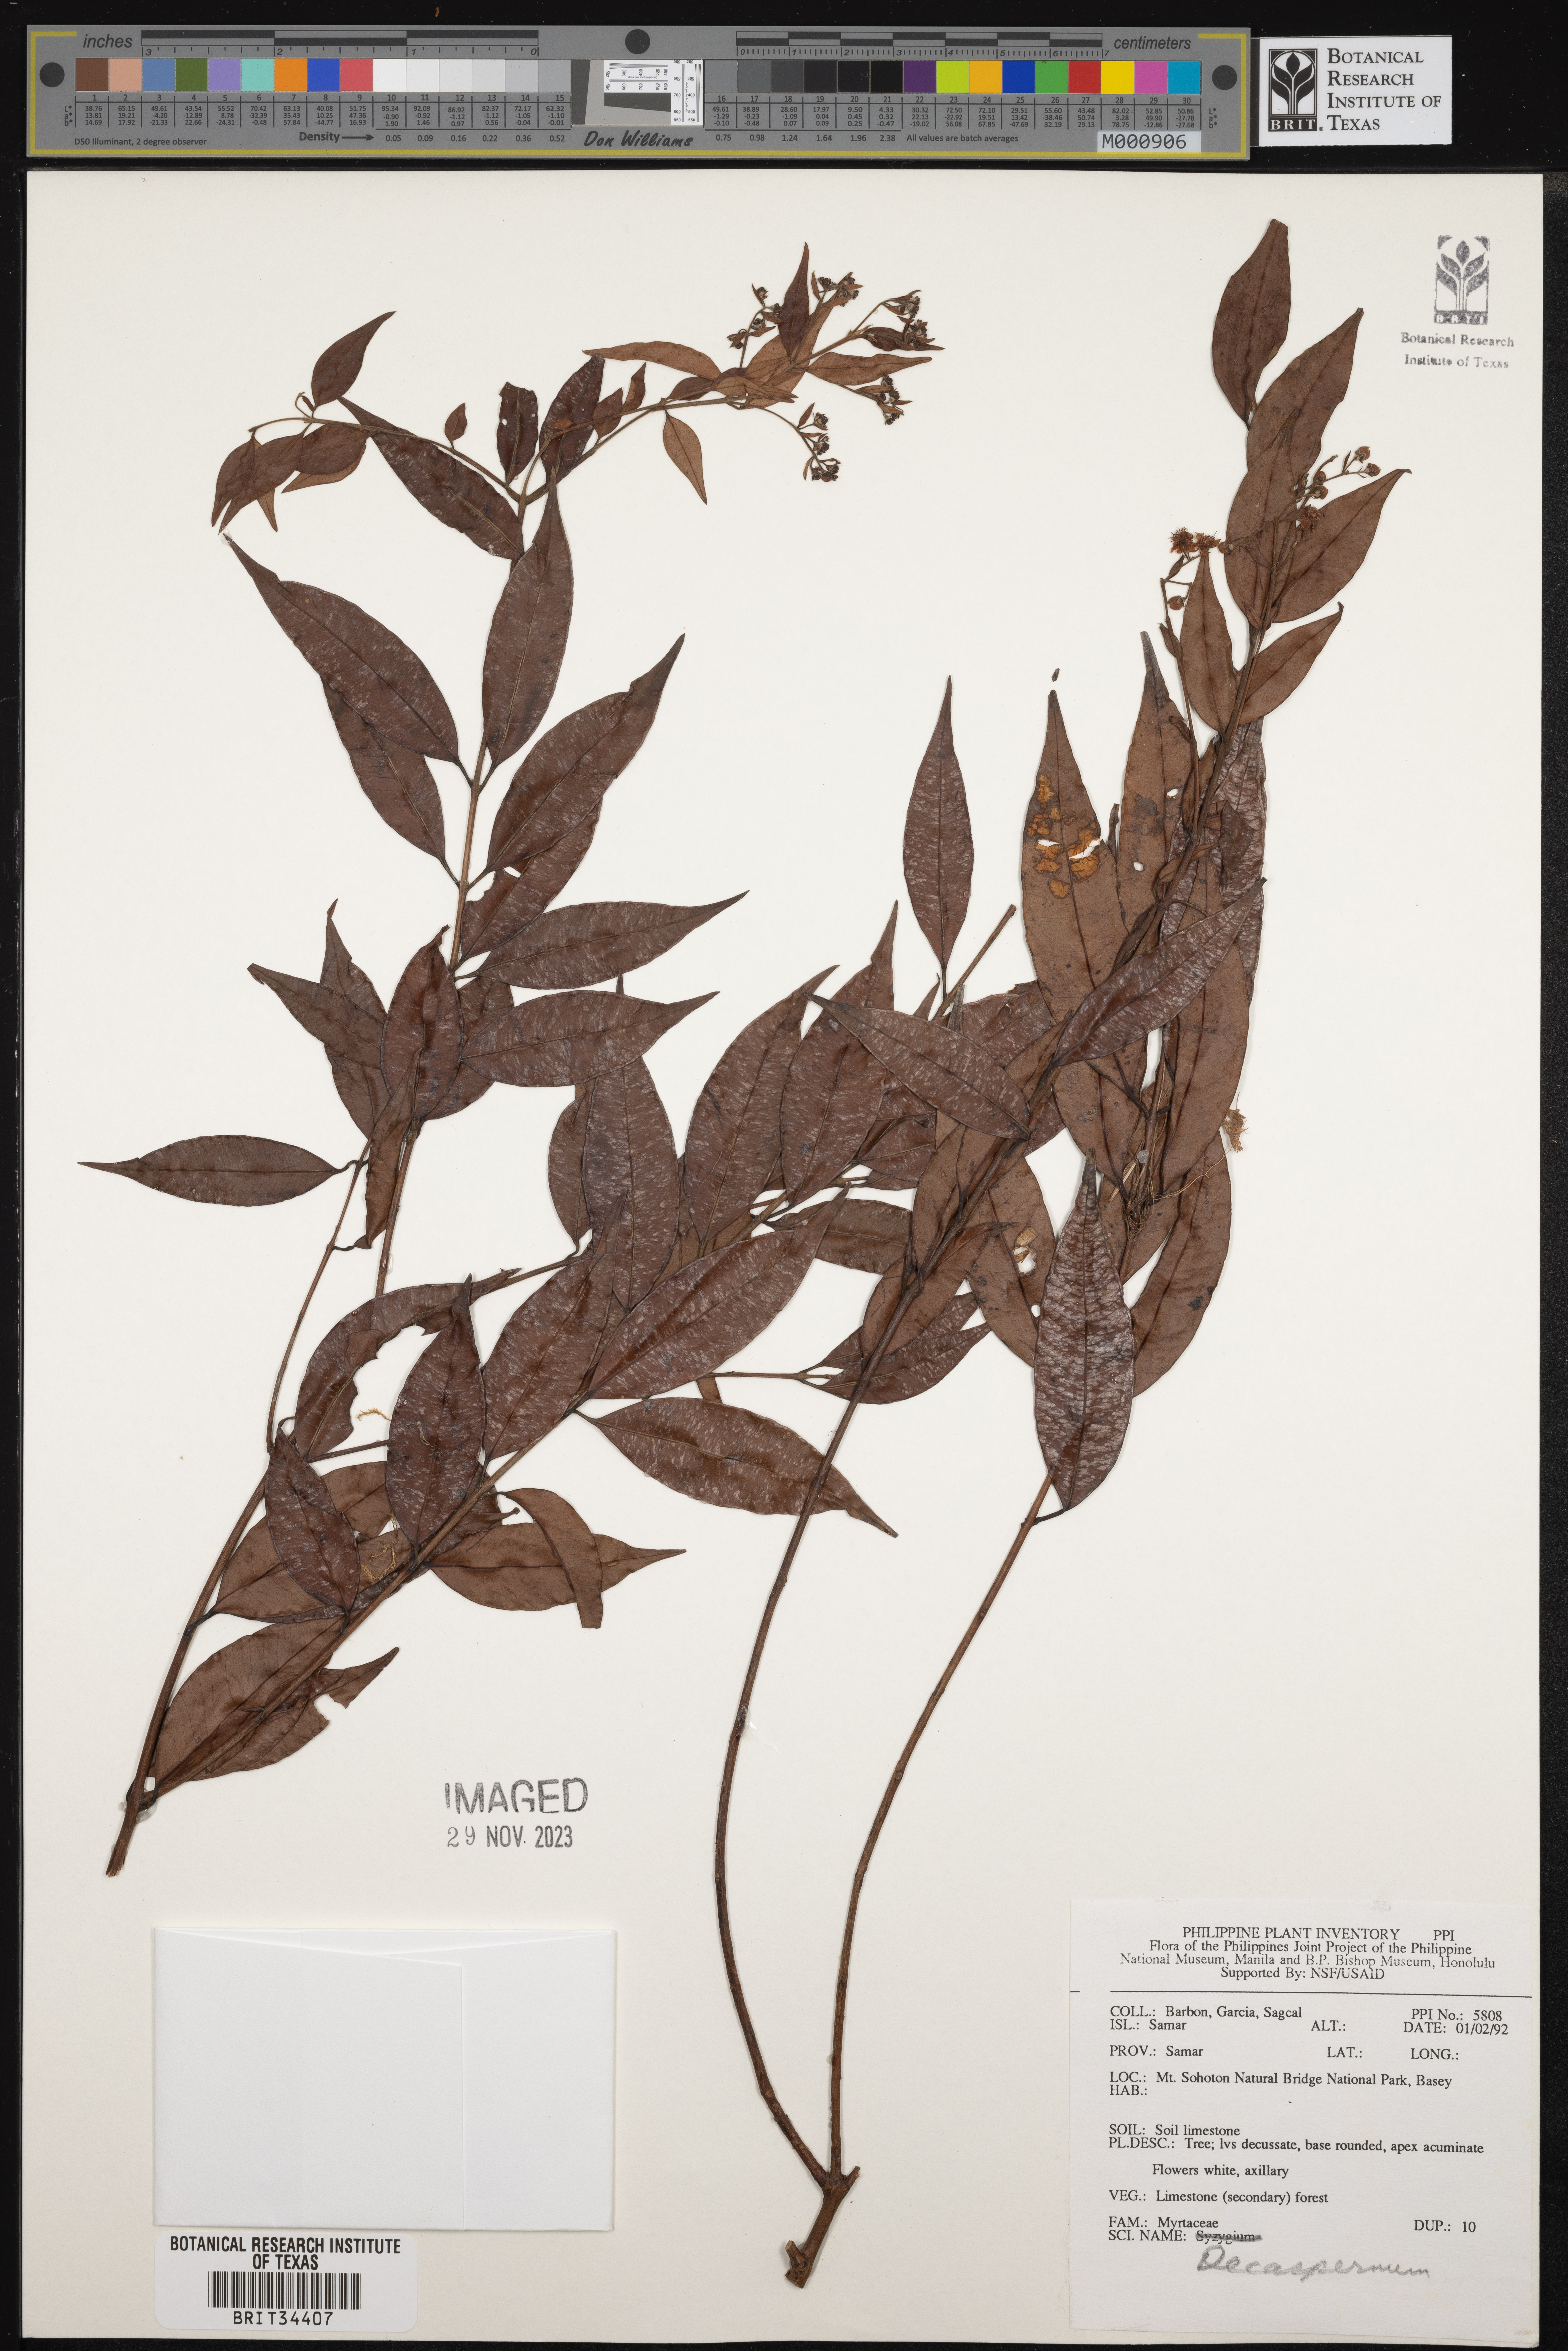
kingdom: Plantae
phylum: Tracheophyta
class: Magnoliopsida
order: Myrtales
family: Myrtaceae
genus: Decaspermum
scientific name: Decaspermum
